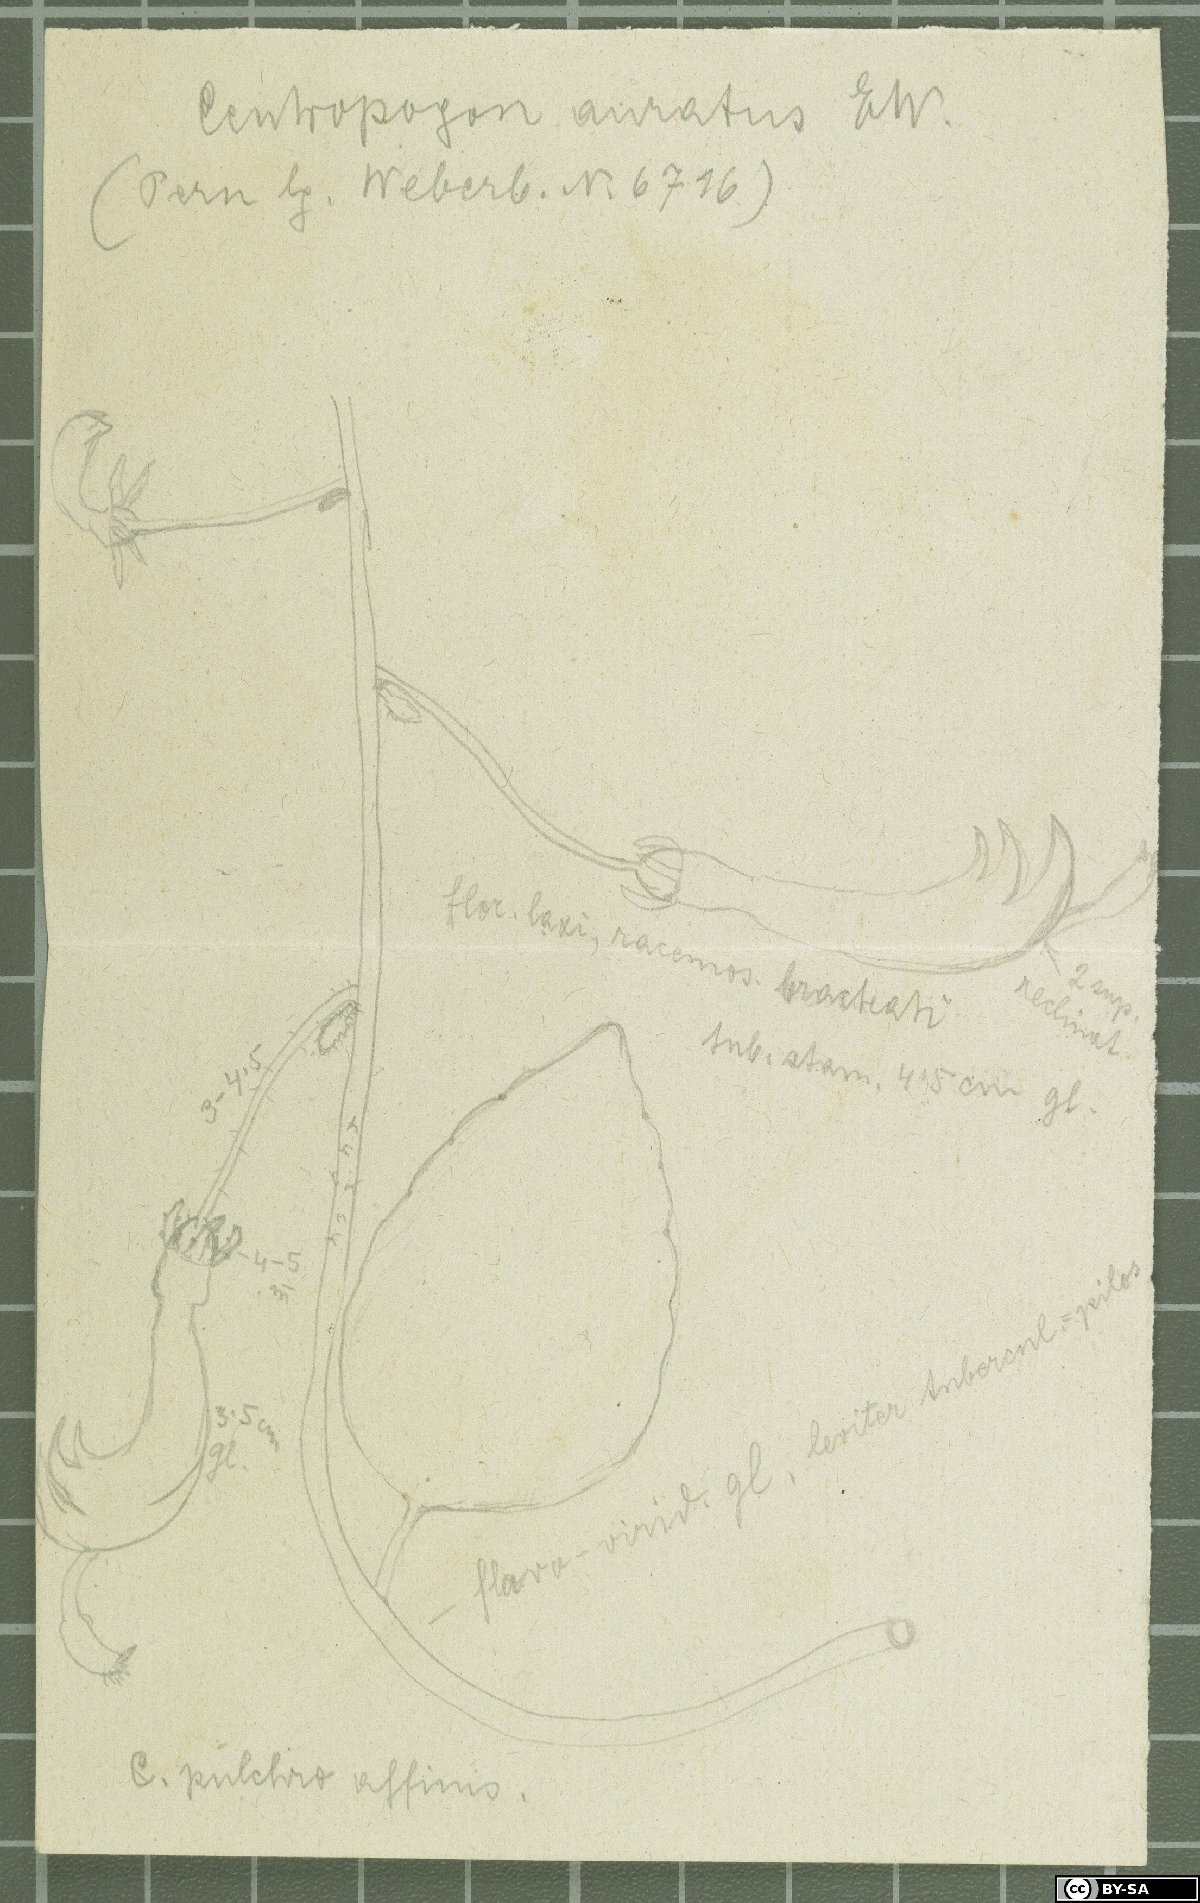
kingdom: Plantae
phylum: Tracheophyta
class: Magnoliopsida
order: Asterales
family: Campanulaceae
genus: Centropogon
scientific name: Centropogon reflexus
